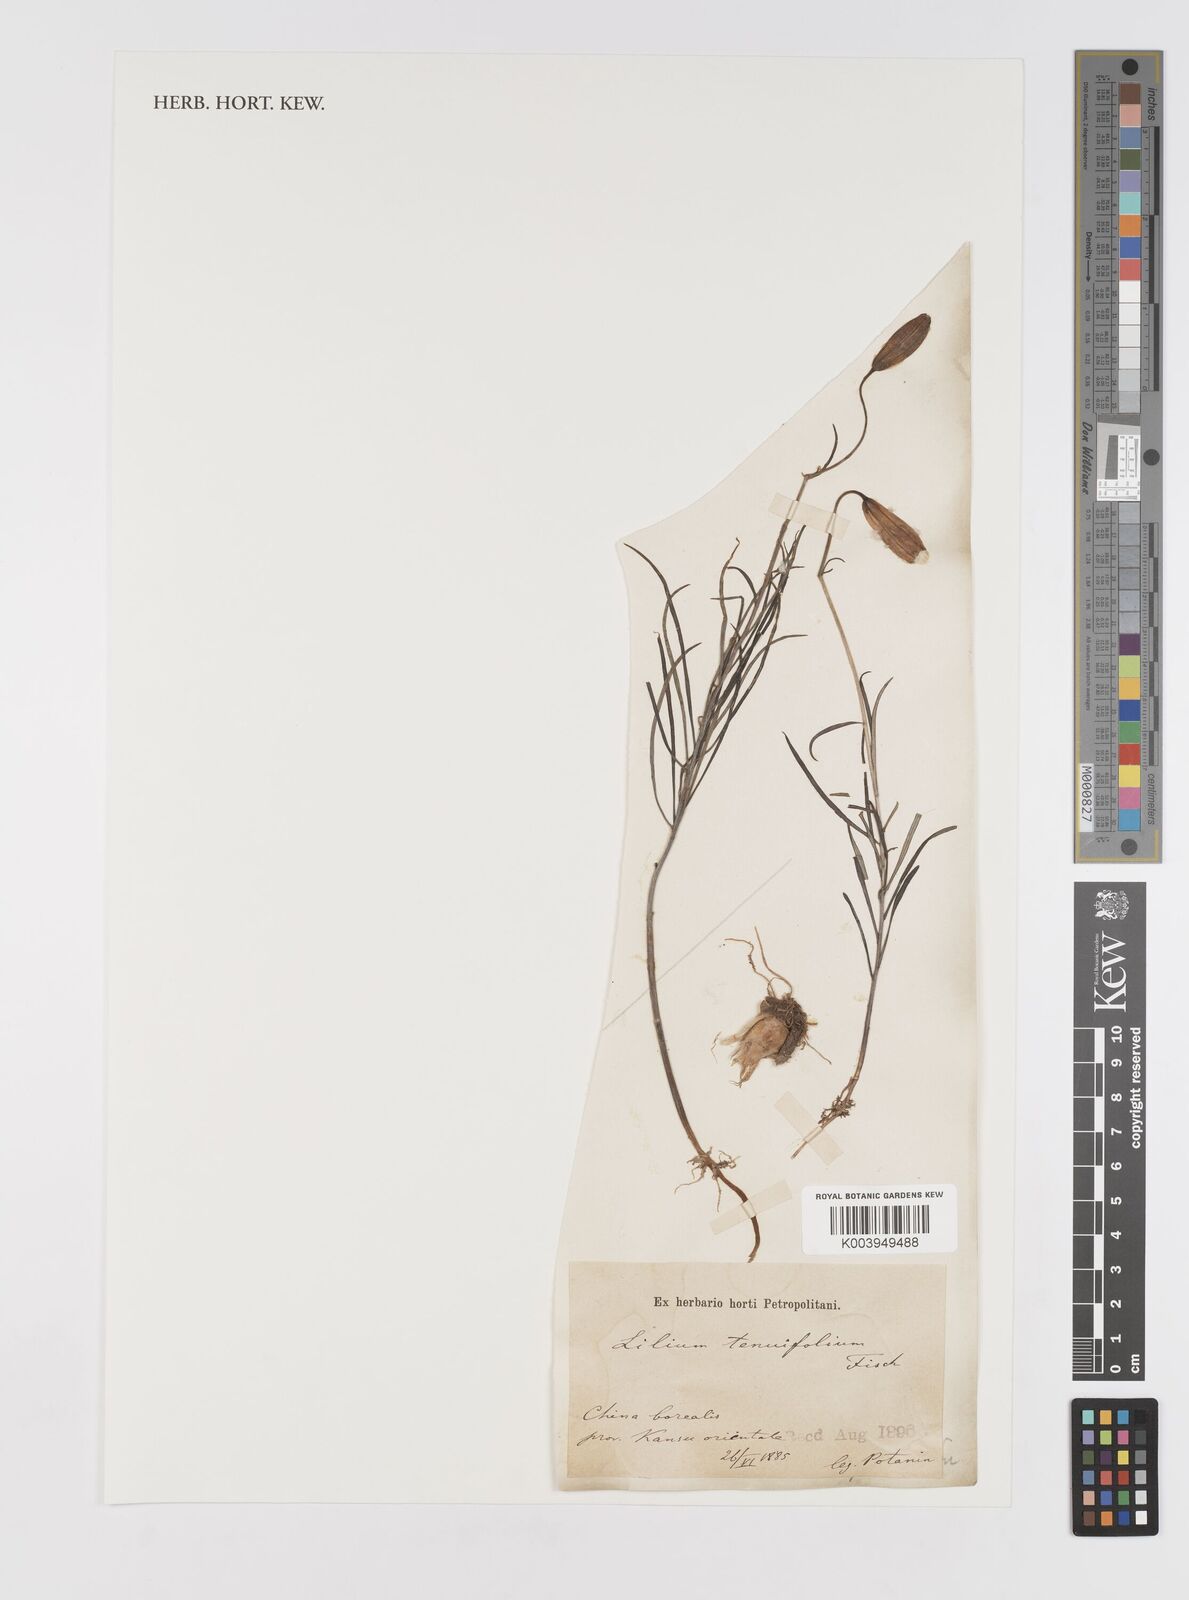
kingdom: Plantae
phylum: Tracheophyta
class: Liliopsida
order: Liliales
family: Liliaceae
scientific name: Liliaceae
